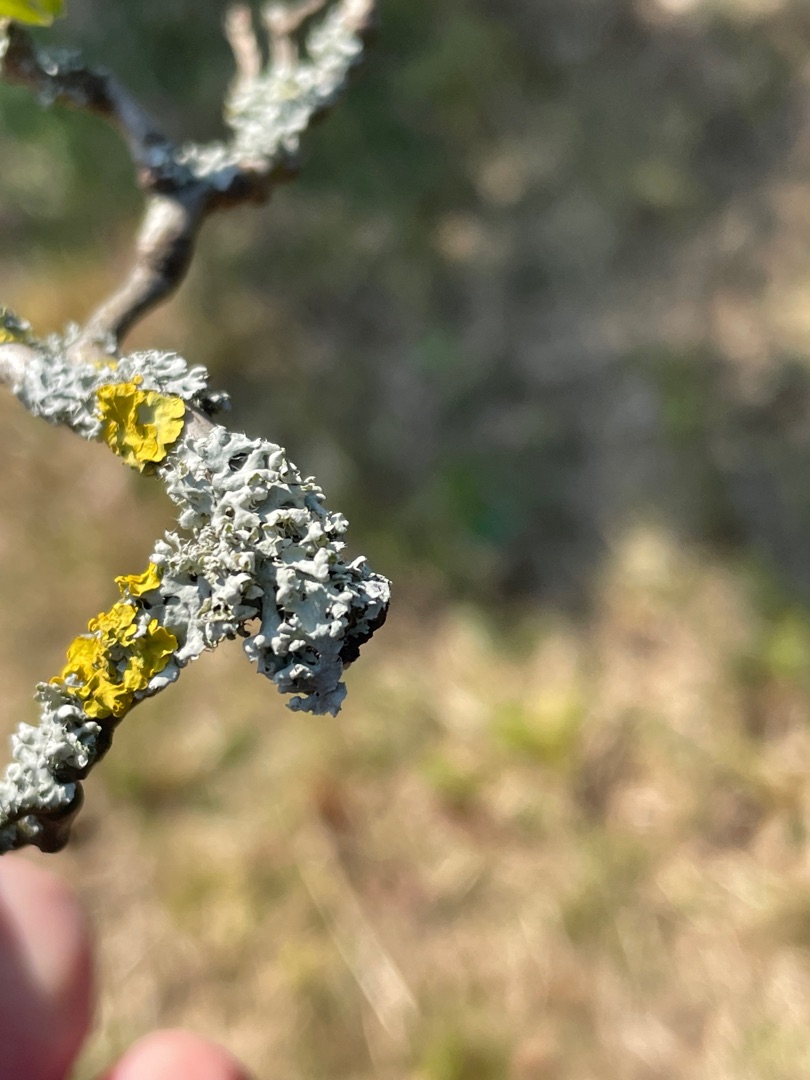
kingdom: Fungi
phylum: Ascomycota
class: Lecanoromycetes
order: Teloschistales
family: Teloschistaceae
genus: Xanthoria
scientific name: Xanthoria parietina
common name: Almindelig væggelav
